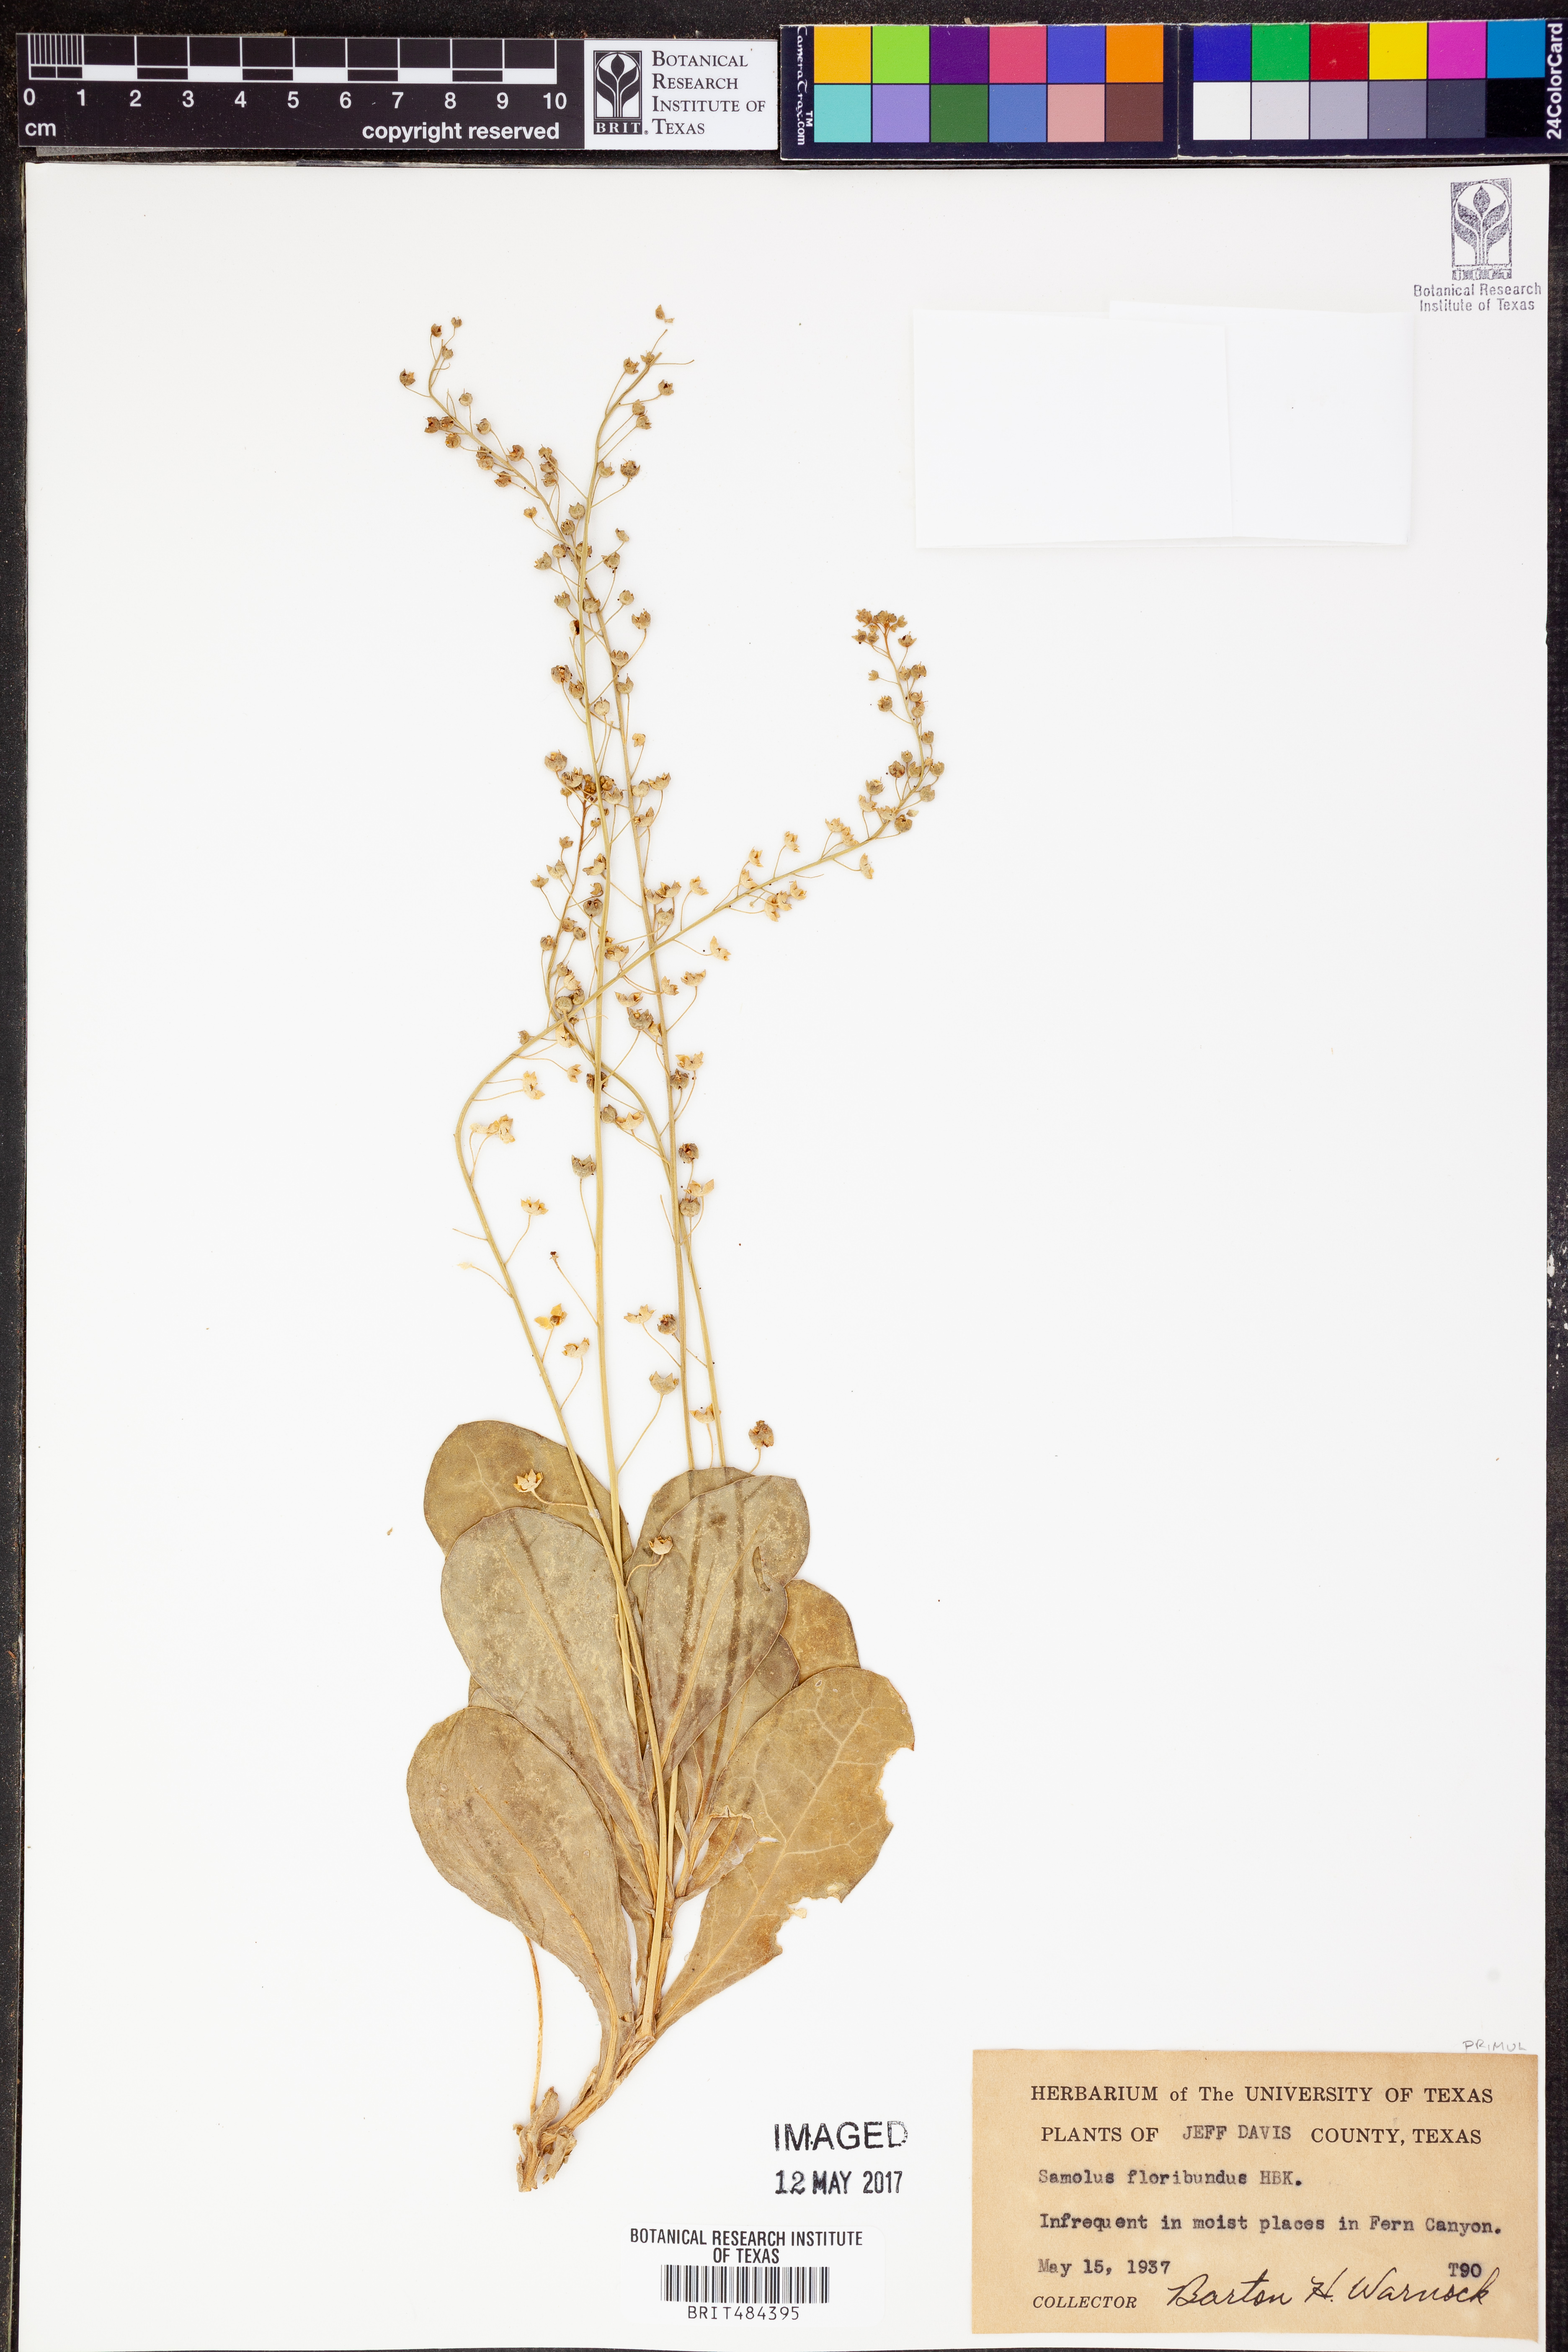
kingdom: Plantae
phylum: Tracheophyta
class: Magnoliopsida
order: Ericales
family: Primulaceae
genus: Samolus
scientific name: Samolus parviflorus
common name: False water pimpernel
